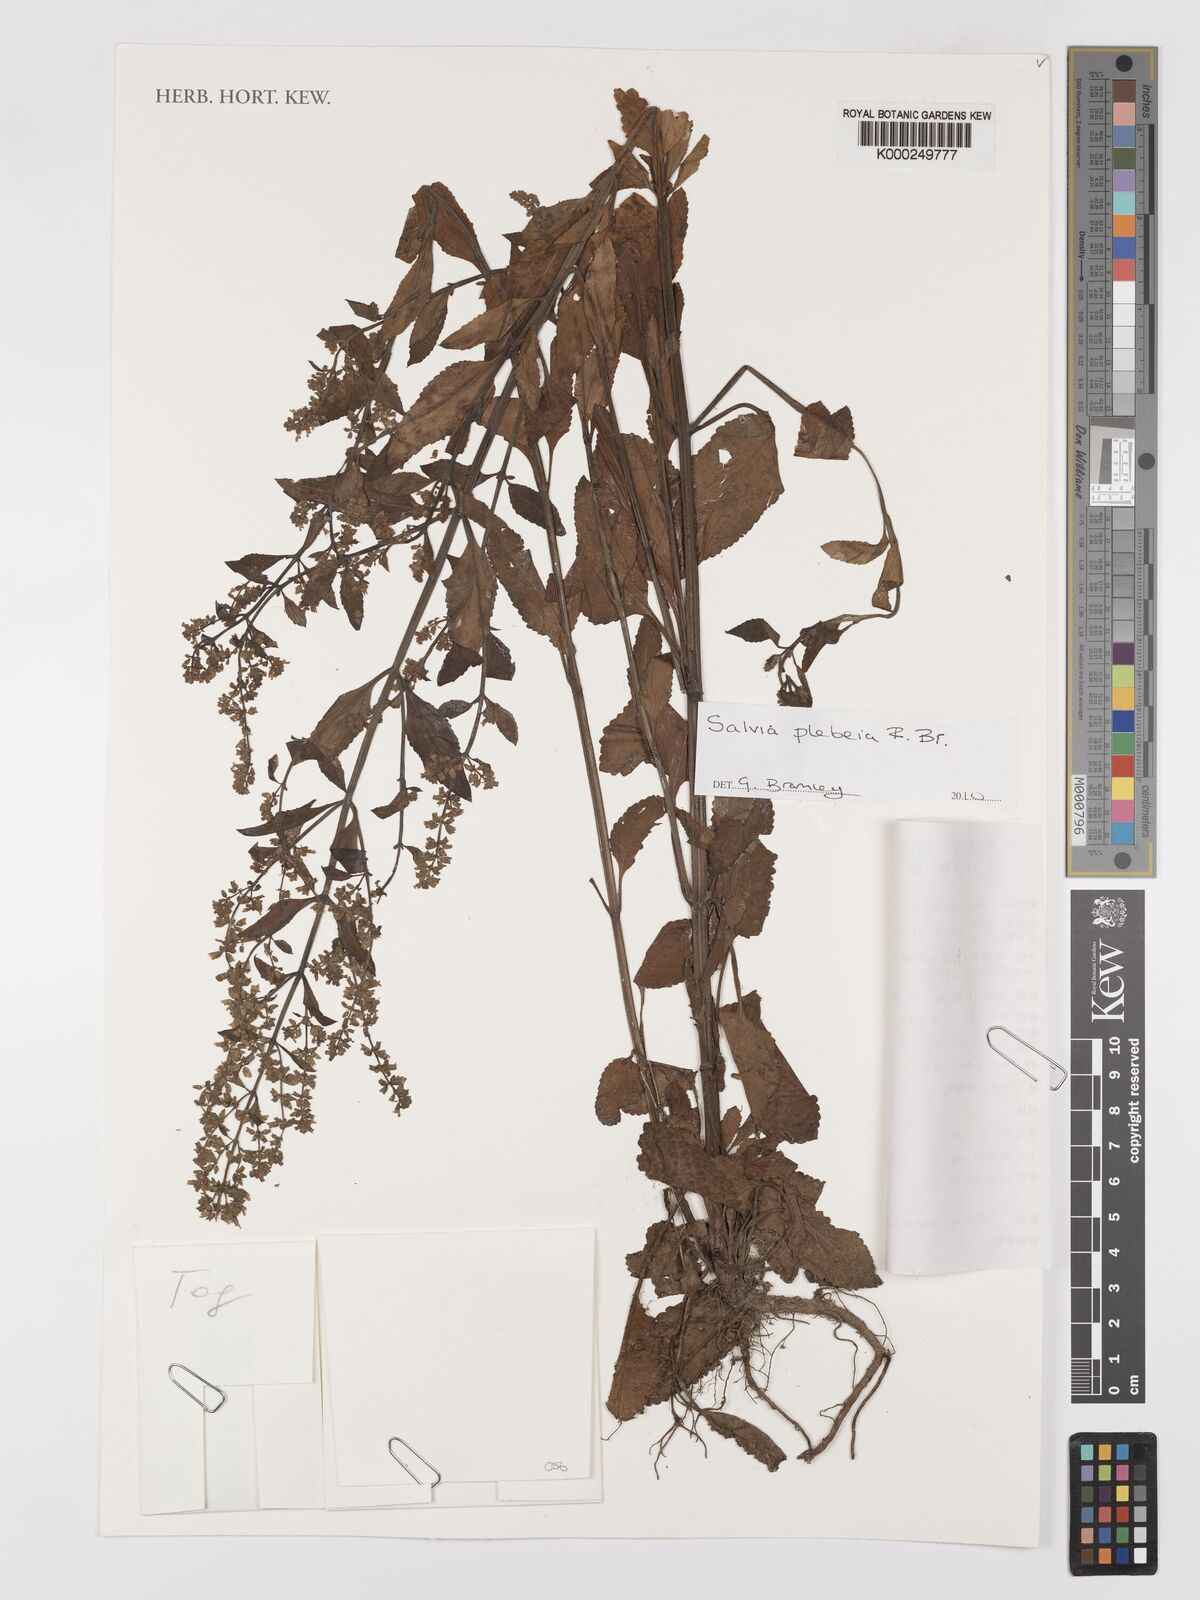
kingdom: Plantae
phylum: Tracheophyta
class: Magnoliopsida
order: Lamiales
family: Lamiaceae
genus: Salvia
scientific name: Salvia
